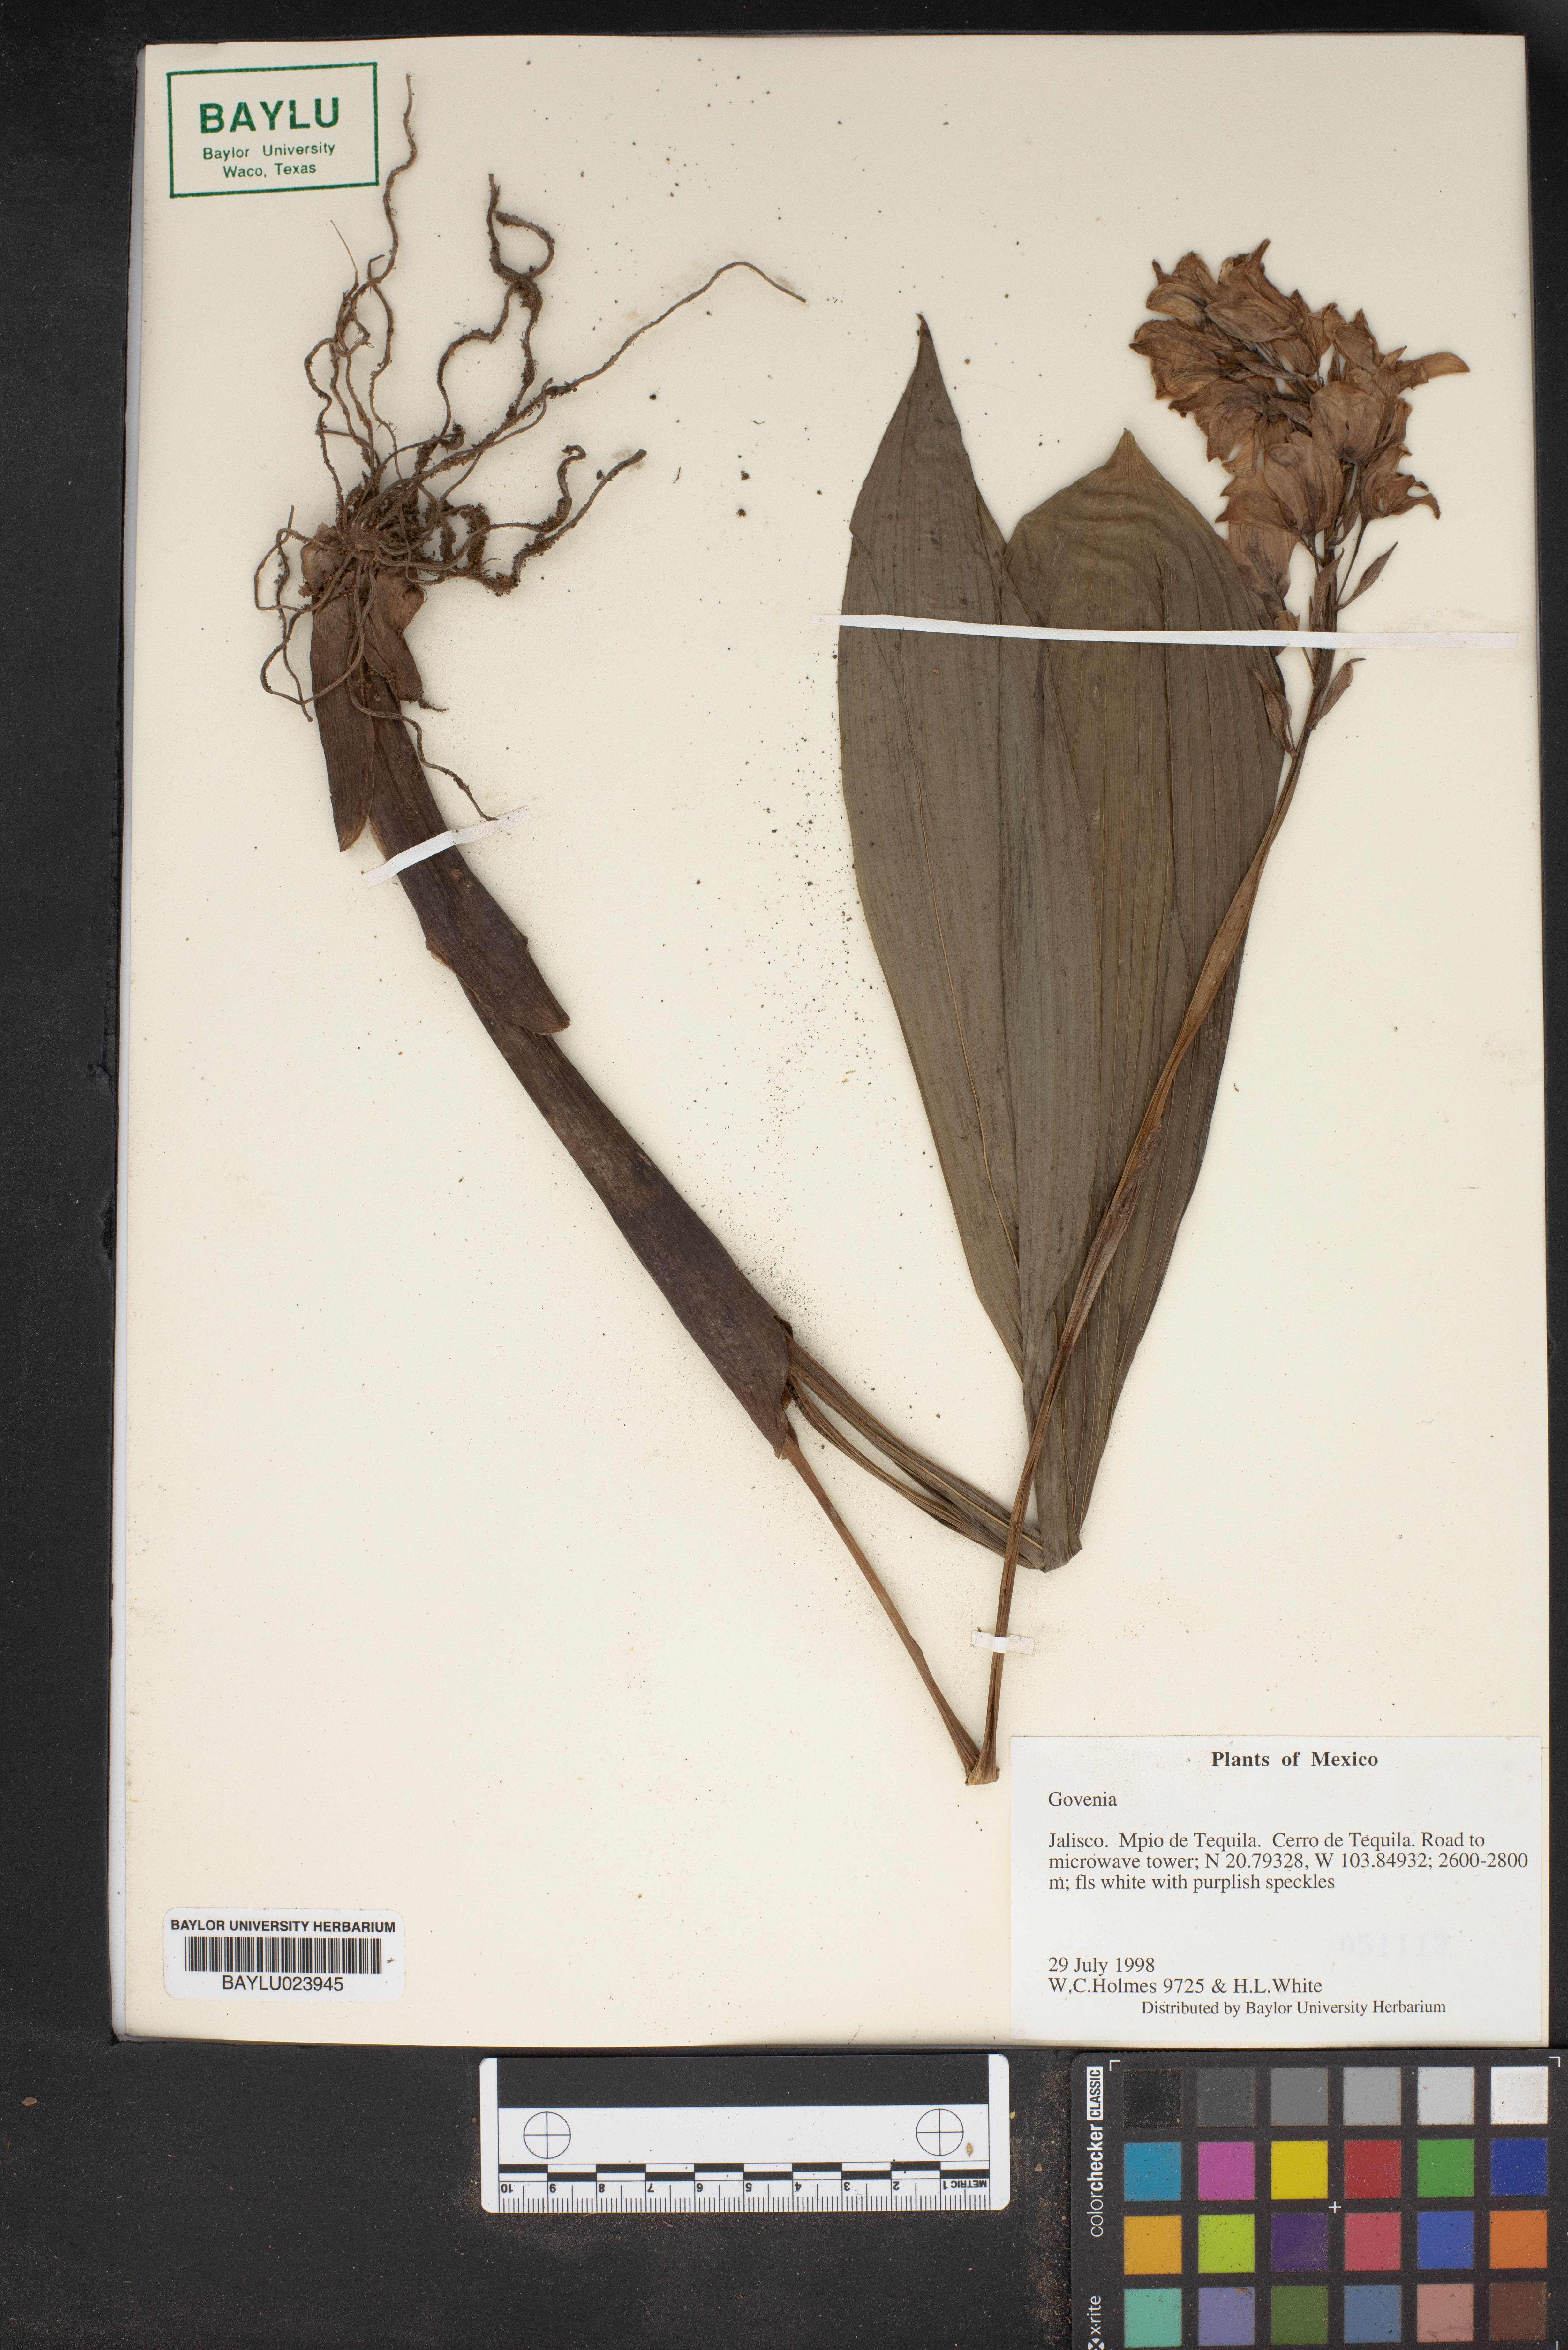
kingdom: Plantae
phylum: Tracheophyta
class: Liliopsida
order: Asparagales
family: Orchidaceae
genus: Govenia
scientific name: Govenia
